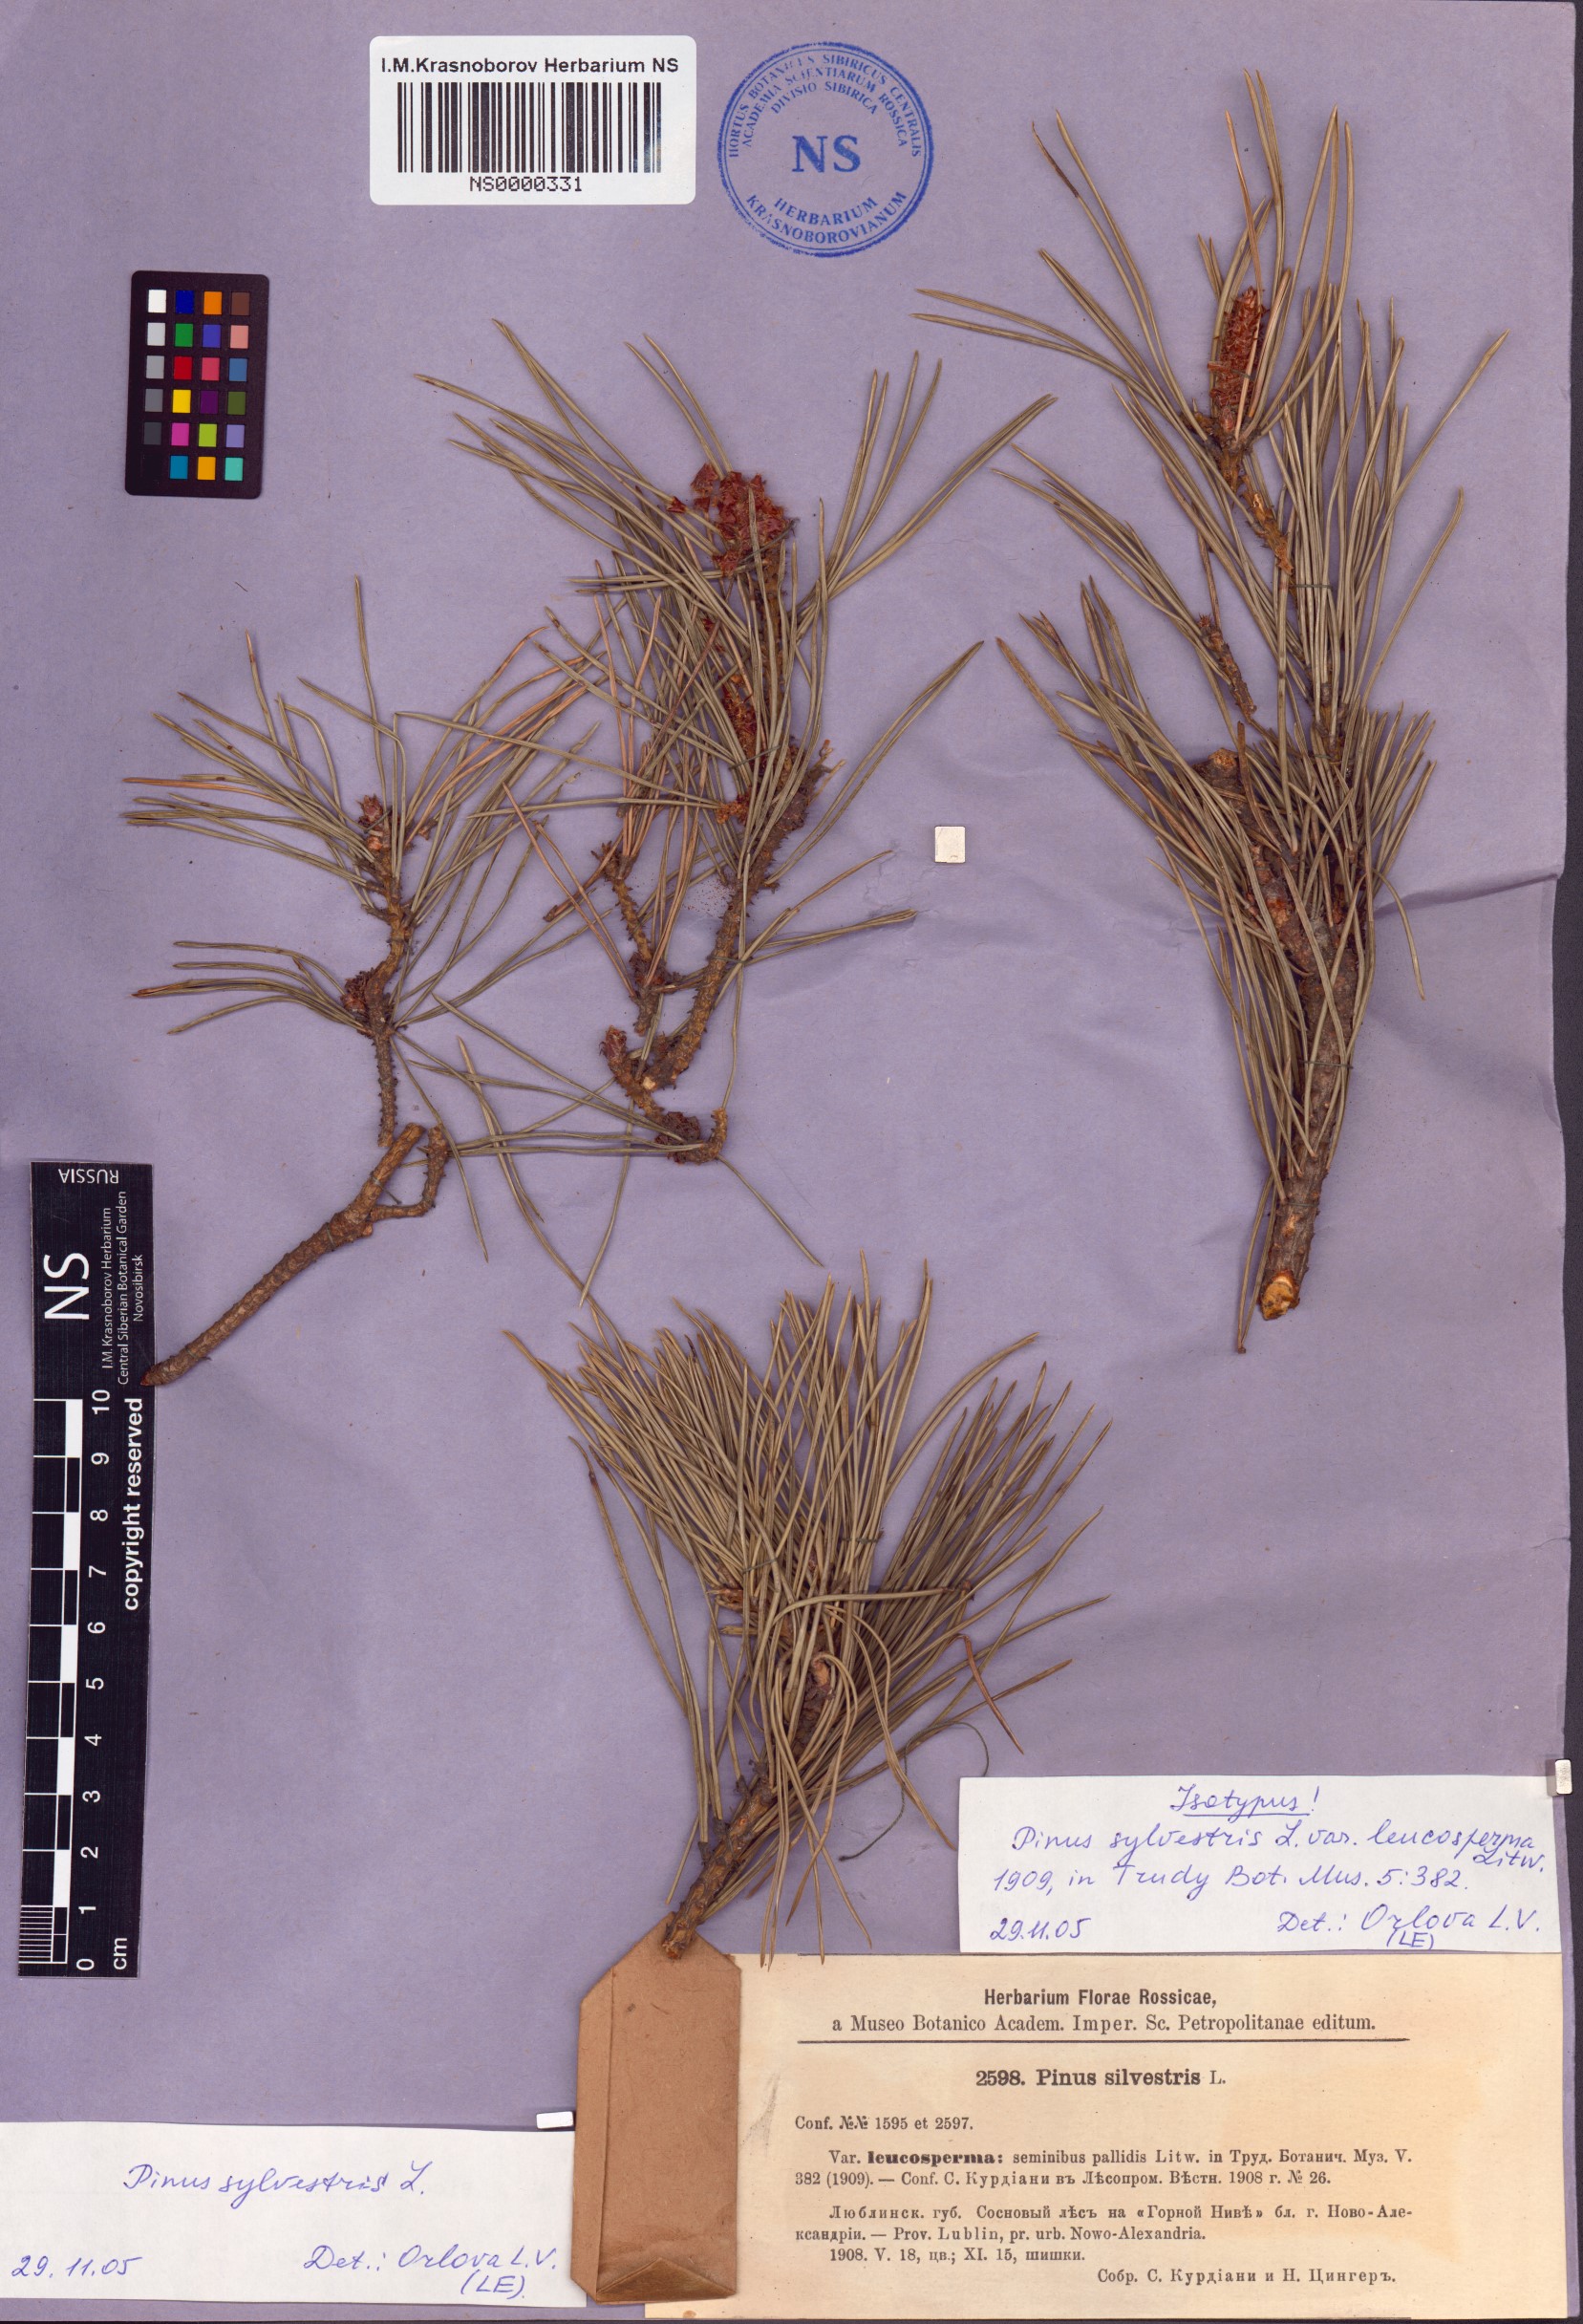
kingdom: Plantae
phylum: Tracheophyta
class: Pinopsida
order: Pinales
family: Pinaceae
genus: Pinus
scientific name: Pinus sylvestris
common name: Scots pine
